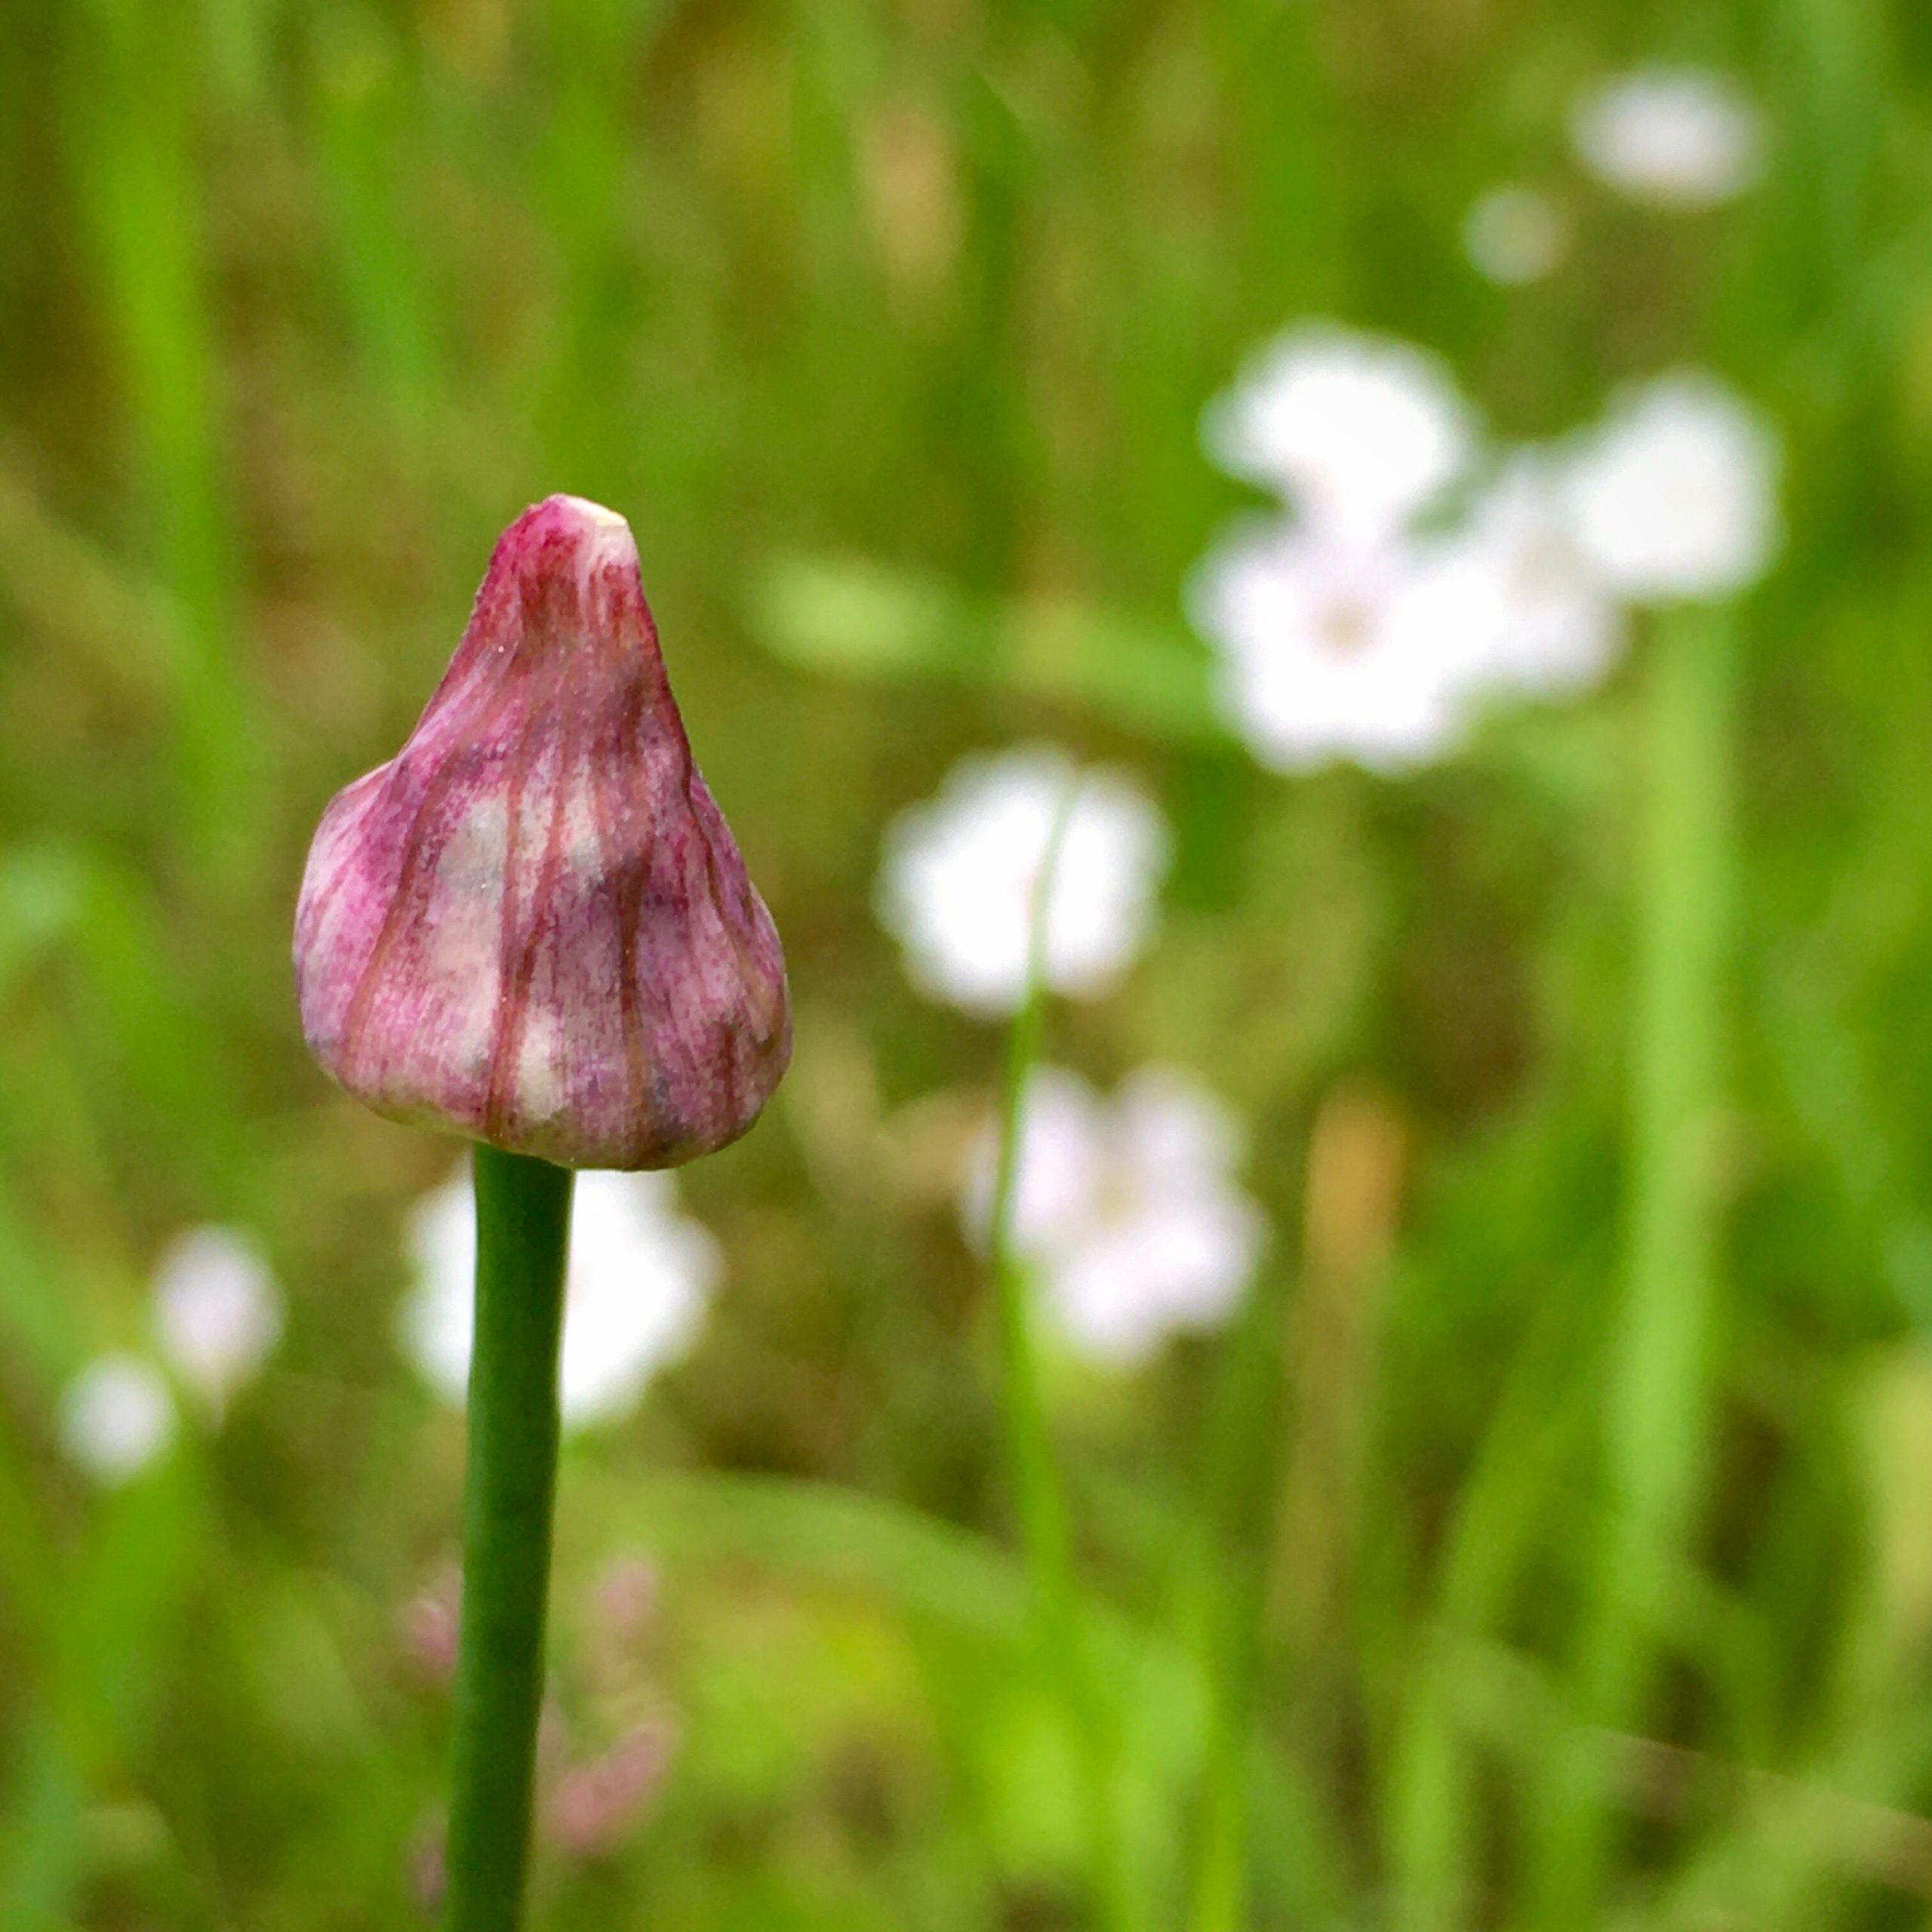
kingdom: Plantae
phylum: Tracheophyta
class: Liliopsida
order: Asparagales
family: Amaryllidaceae
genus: Allium
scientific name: Allium scorodoprasum
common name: Skov-løg
